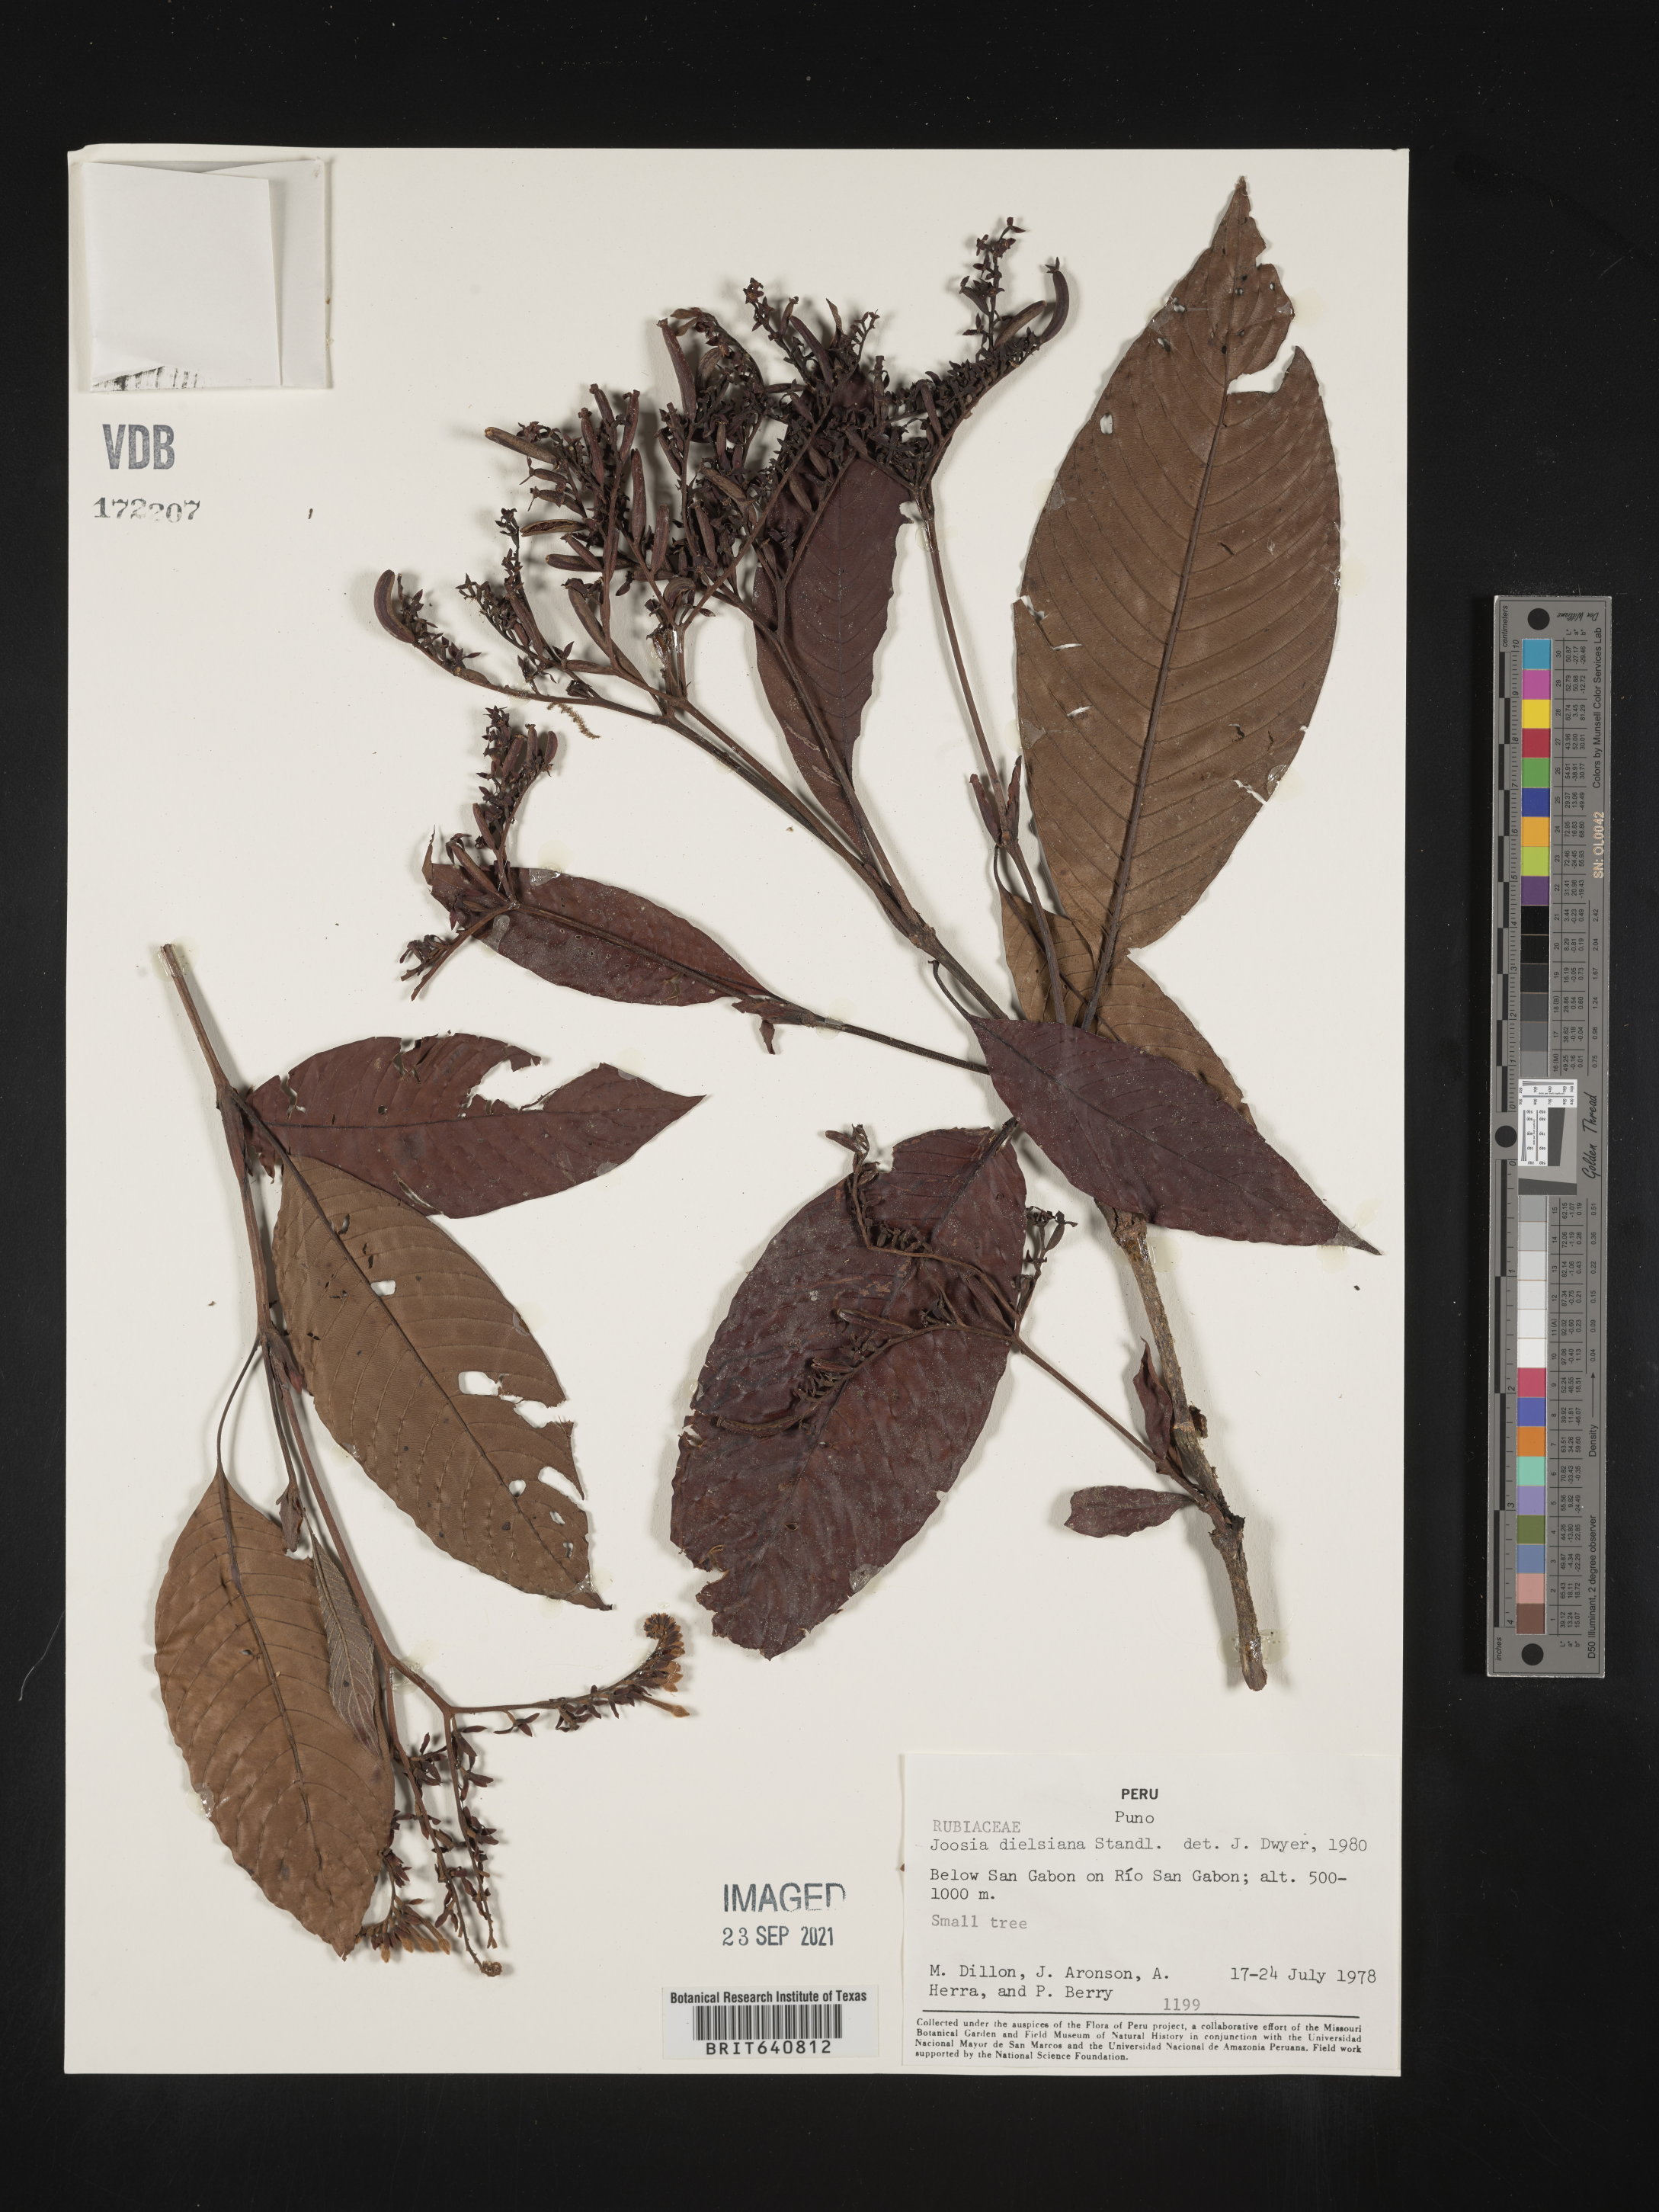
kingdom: Plantae
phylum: Tracheophyta
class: Magnoliopsida
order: Gentianales
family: Rubiaceae
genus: Joosia
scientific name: Joosia
